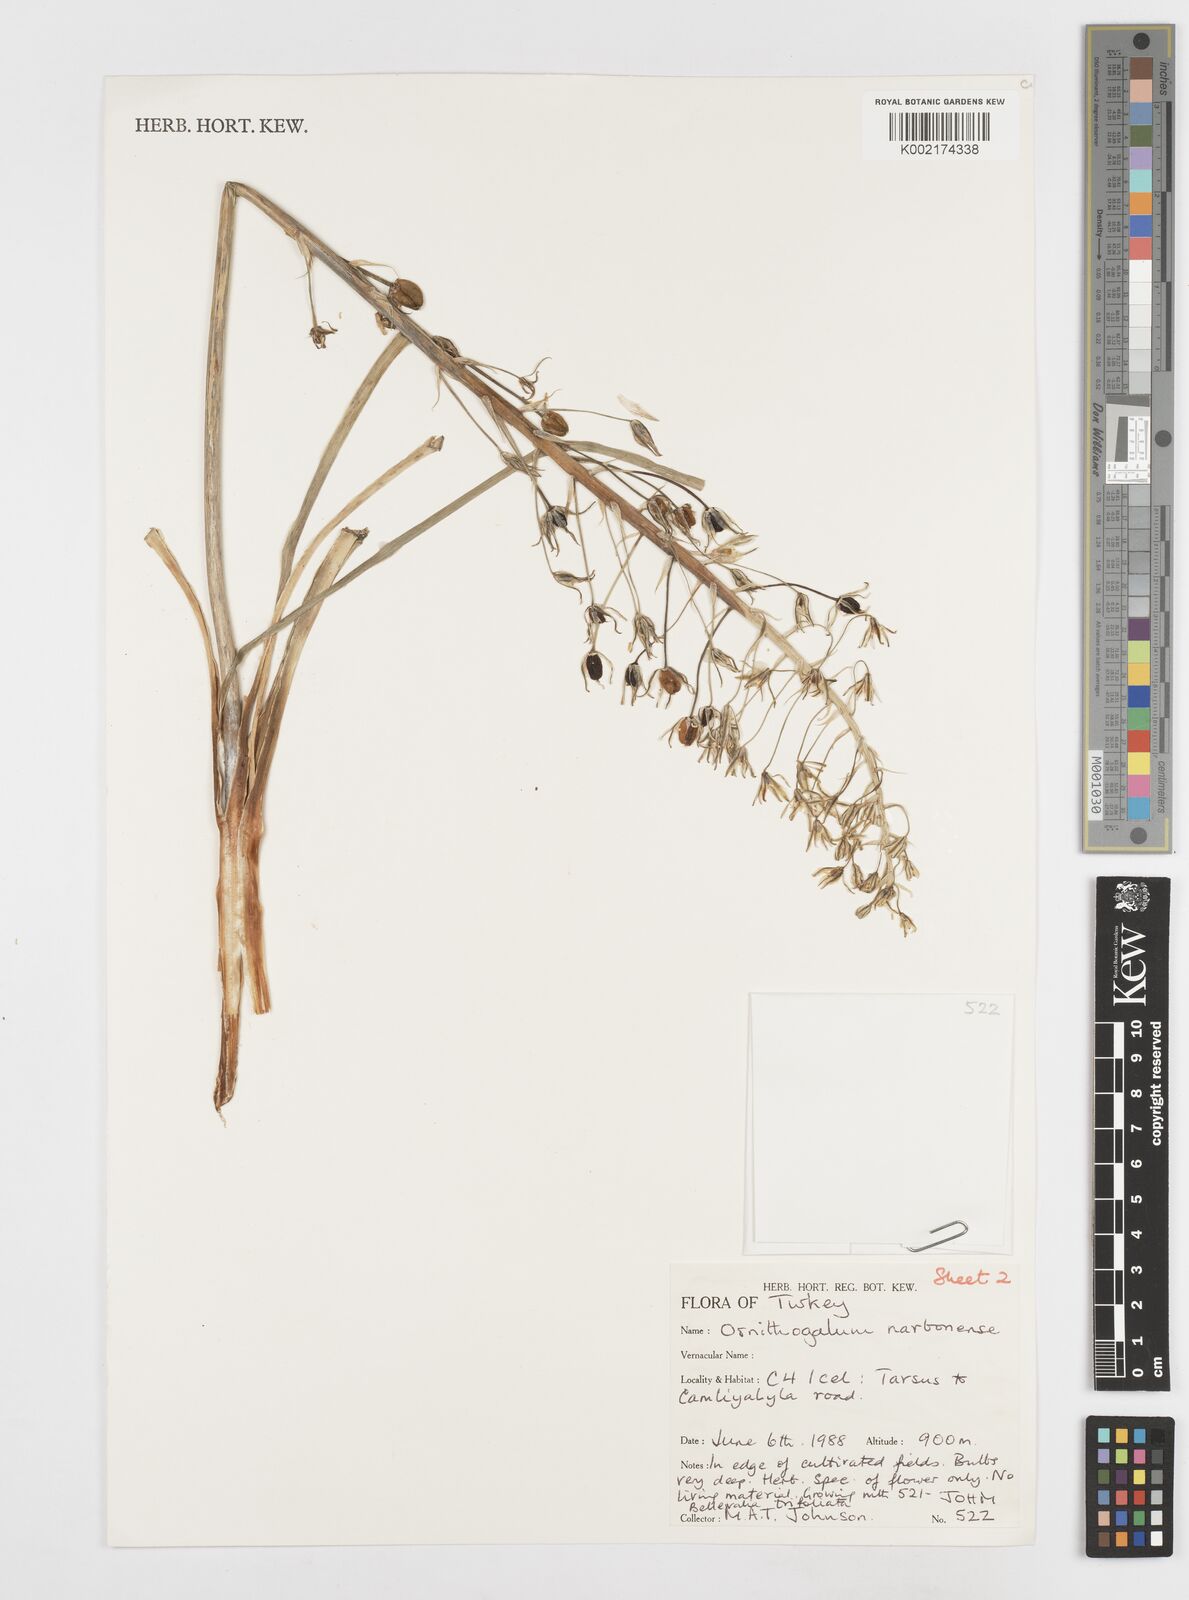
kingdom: Plantae
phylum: Tracheophyta
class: Liliopsida
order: Asparagales
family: Asparagaceae
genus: Ornithogalum
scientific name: Ornithogalum narbonense
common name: Bath-asparagus
